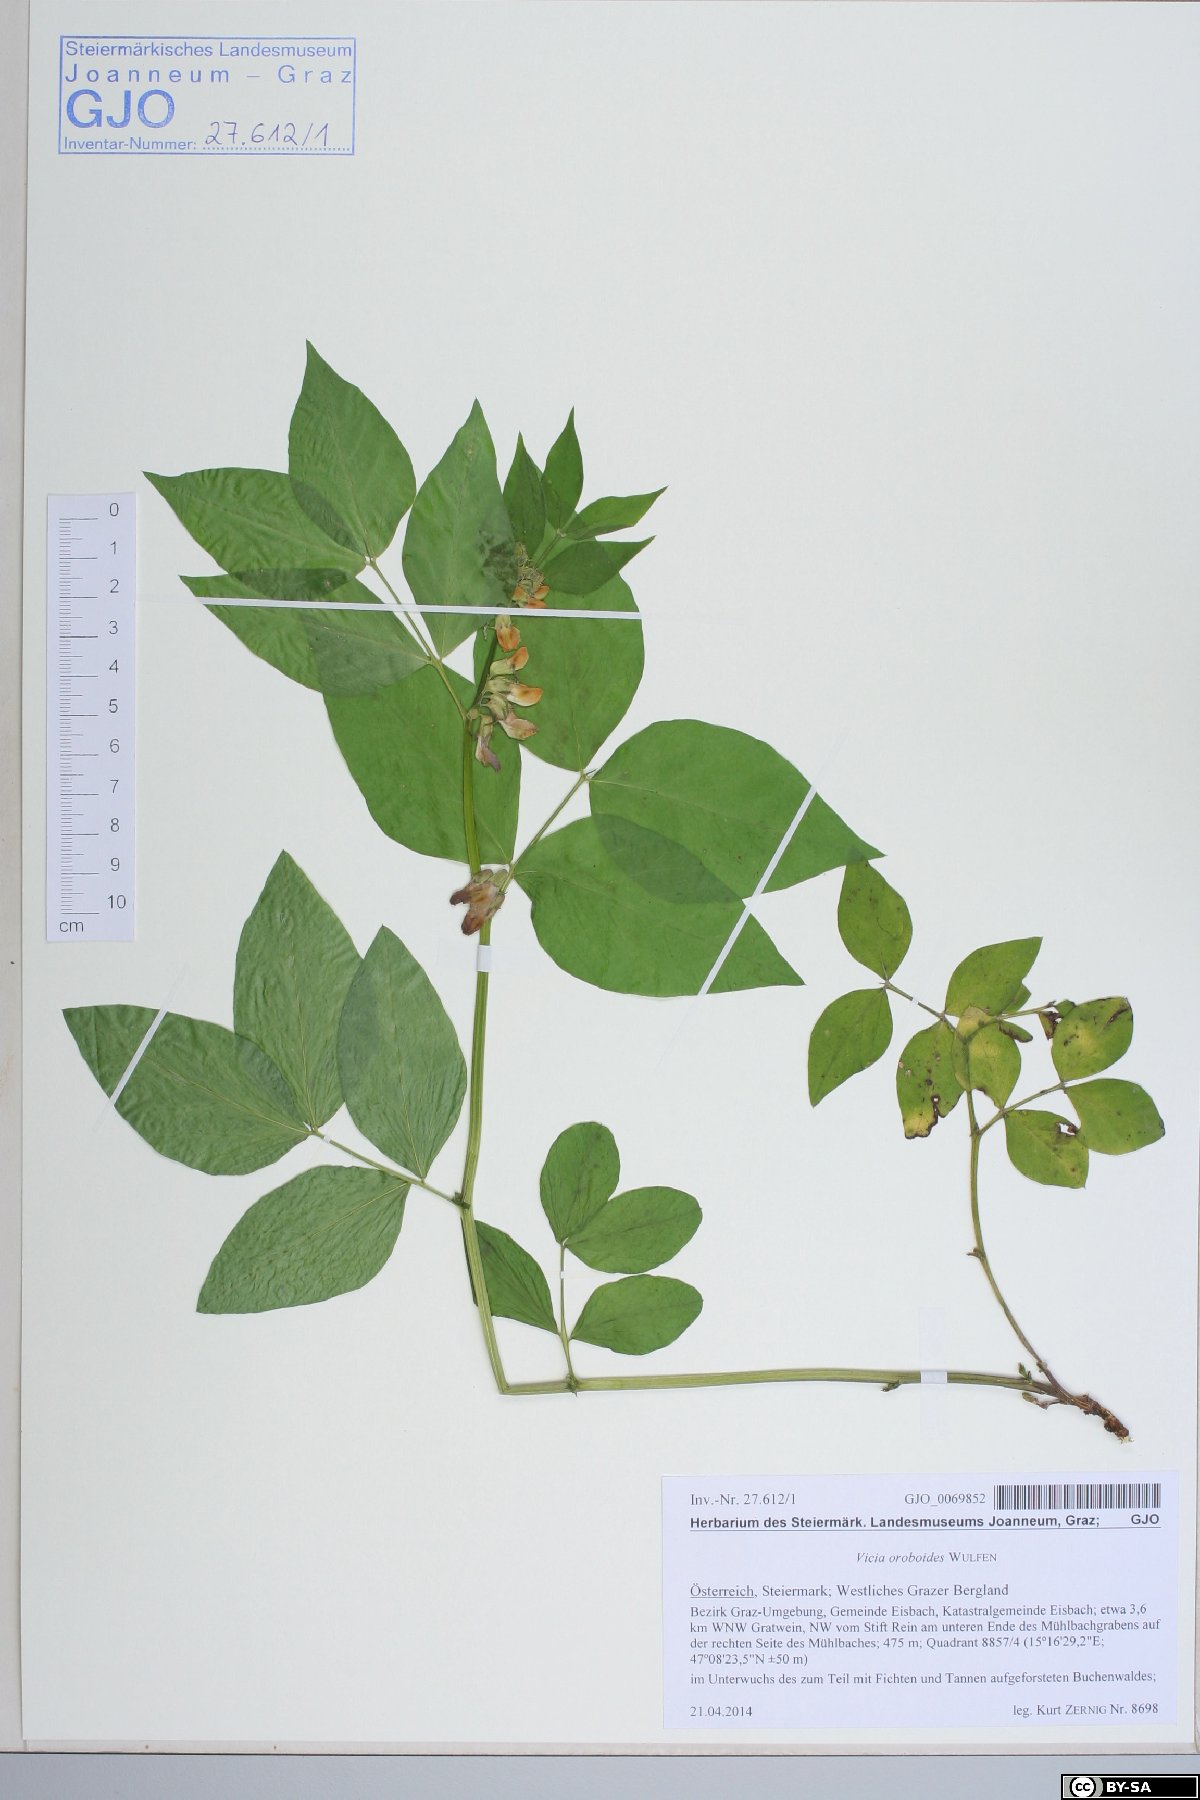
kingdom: Plantae
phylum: Tracheophyta
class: Magnoliopsida
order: Fabales
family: Fabaceae
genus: Vicia
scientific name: Vicia oroboides
